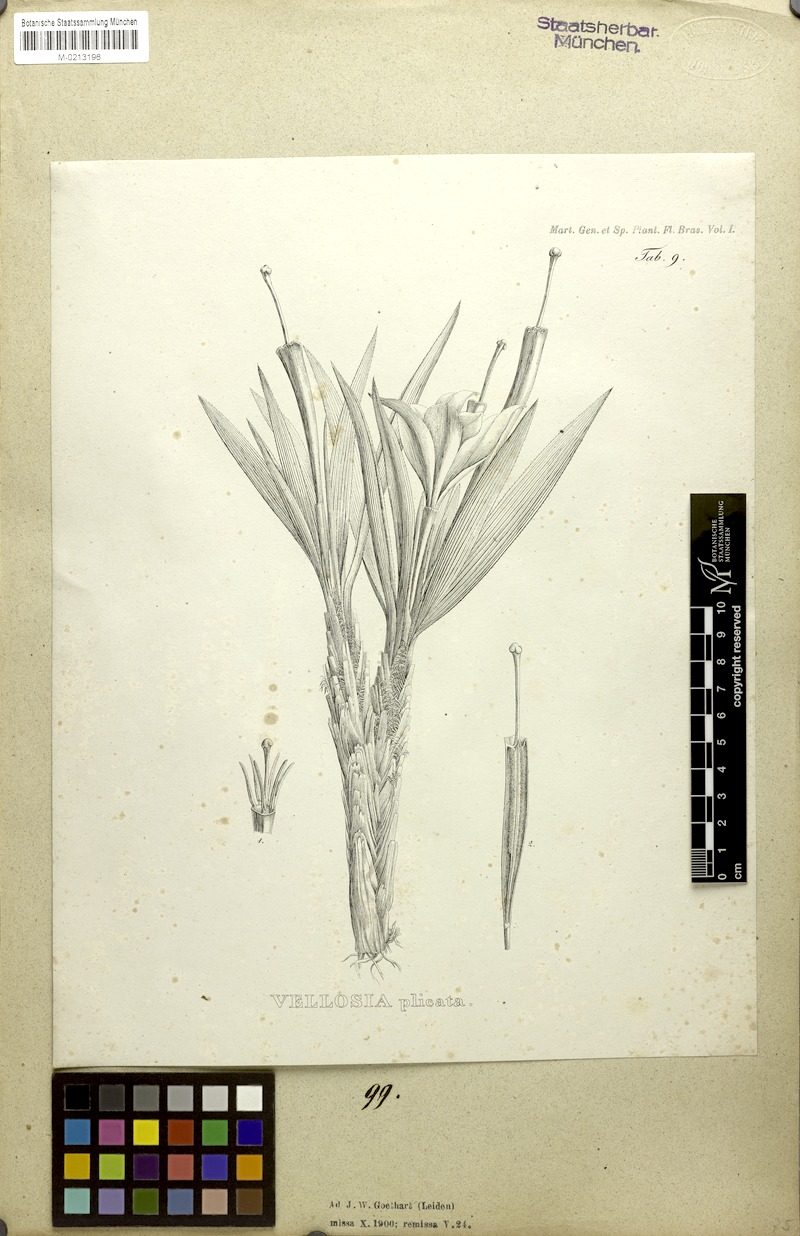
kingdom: Plantae
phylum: Tracheophyta
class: Liliopsida
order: Pandanales
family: Velloziaceae
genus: Nanuza
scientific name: Nanuza plicata
